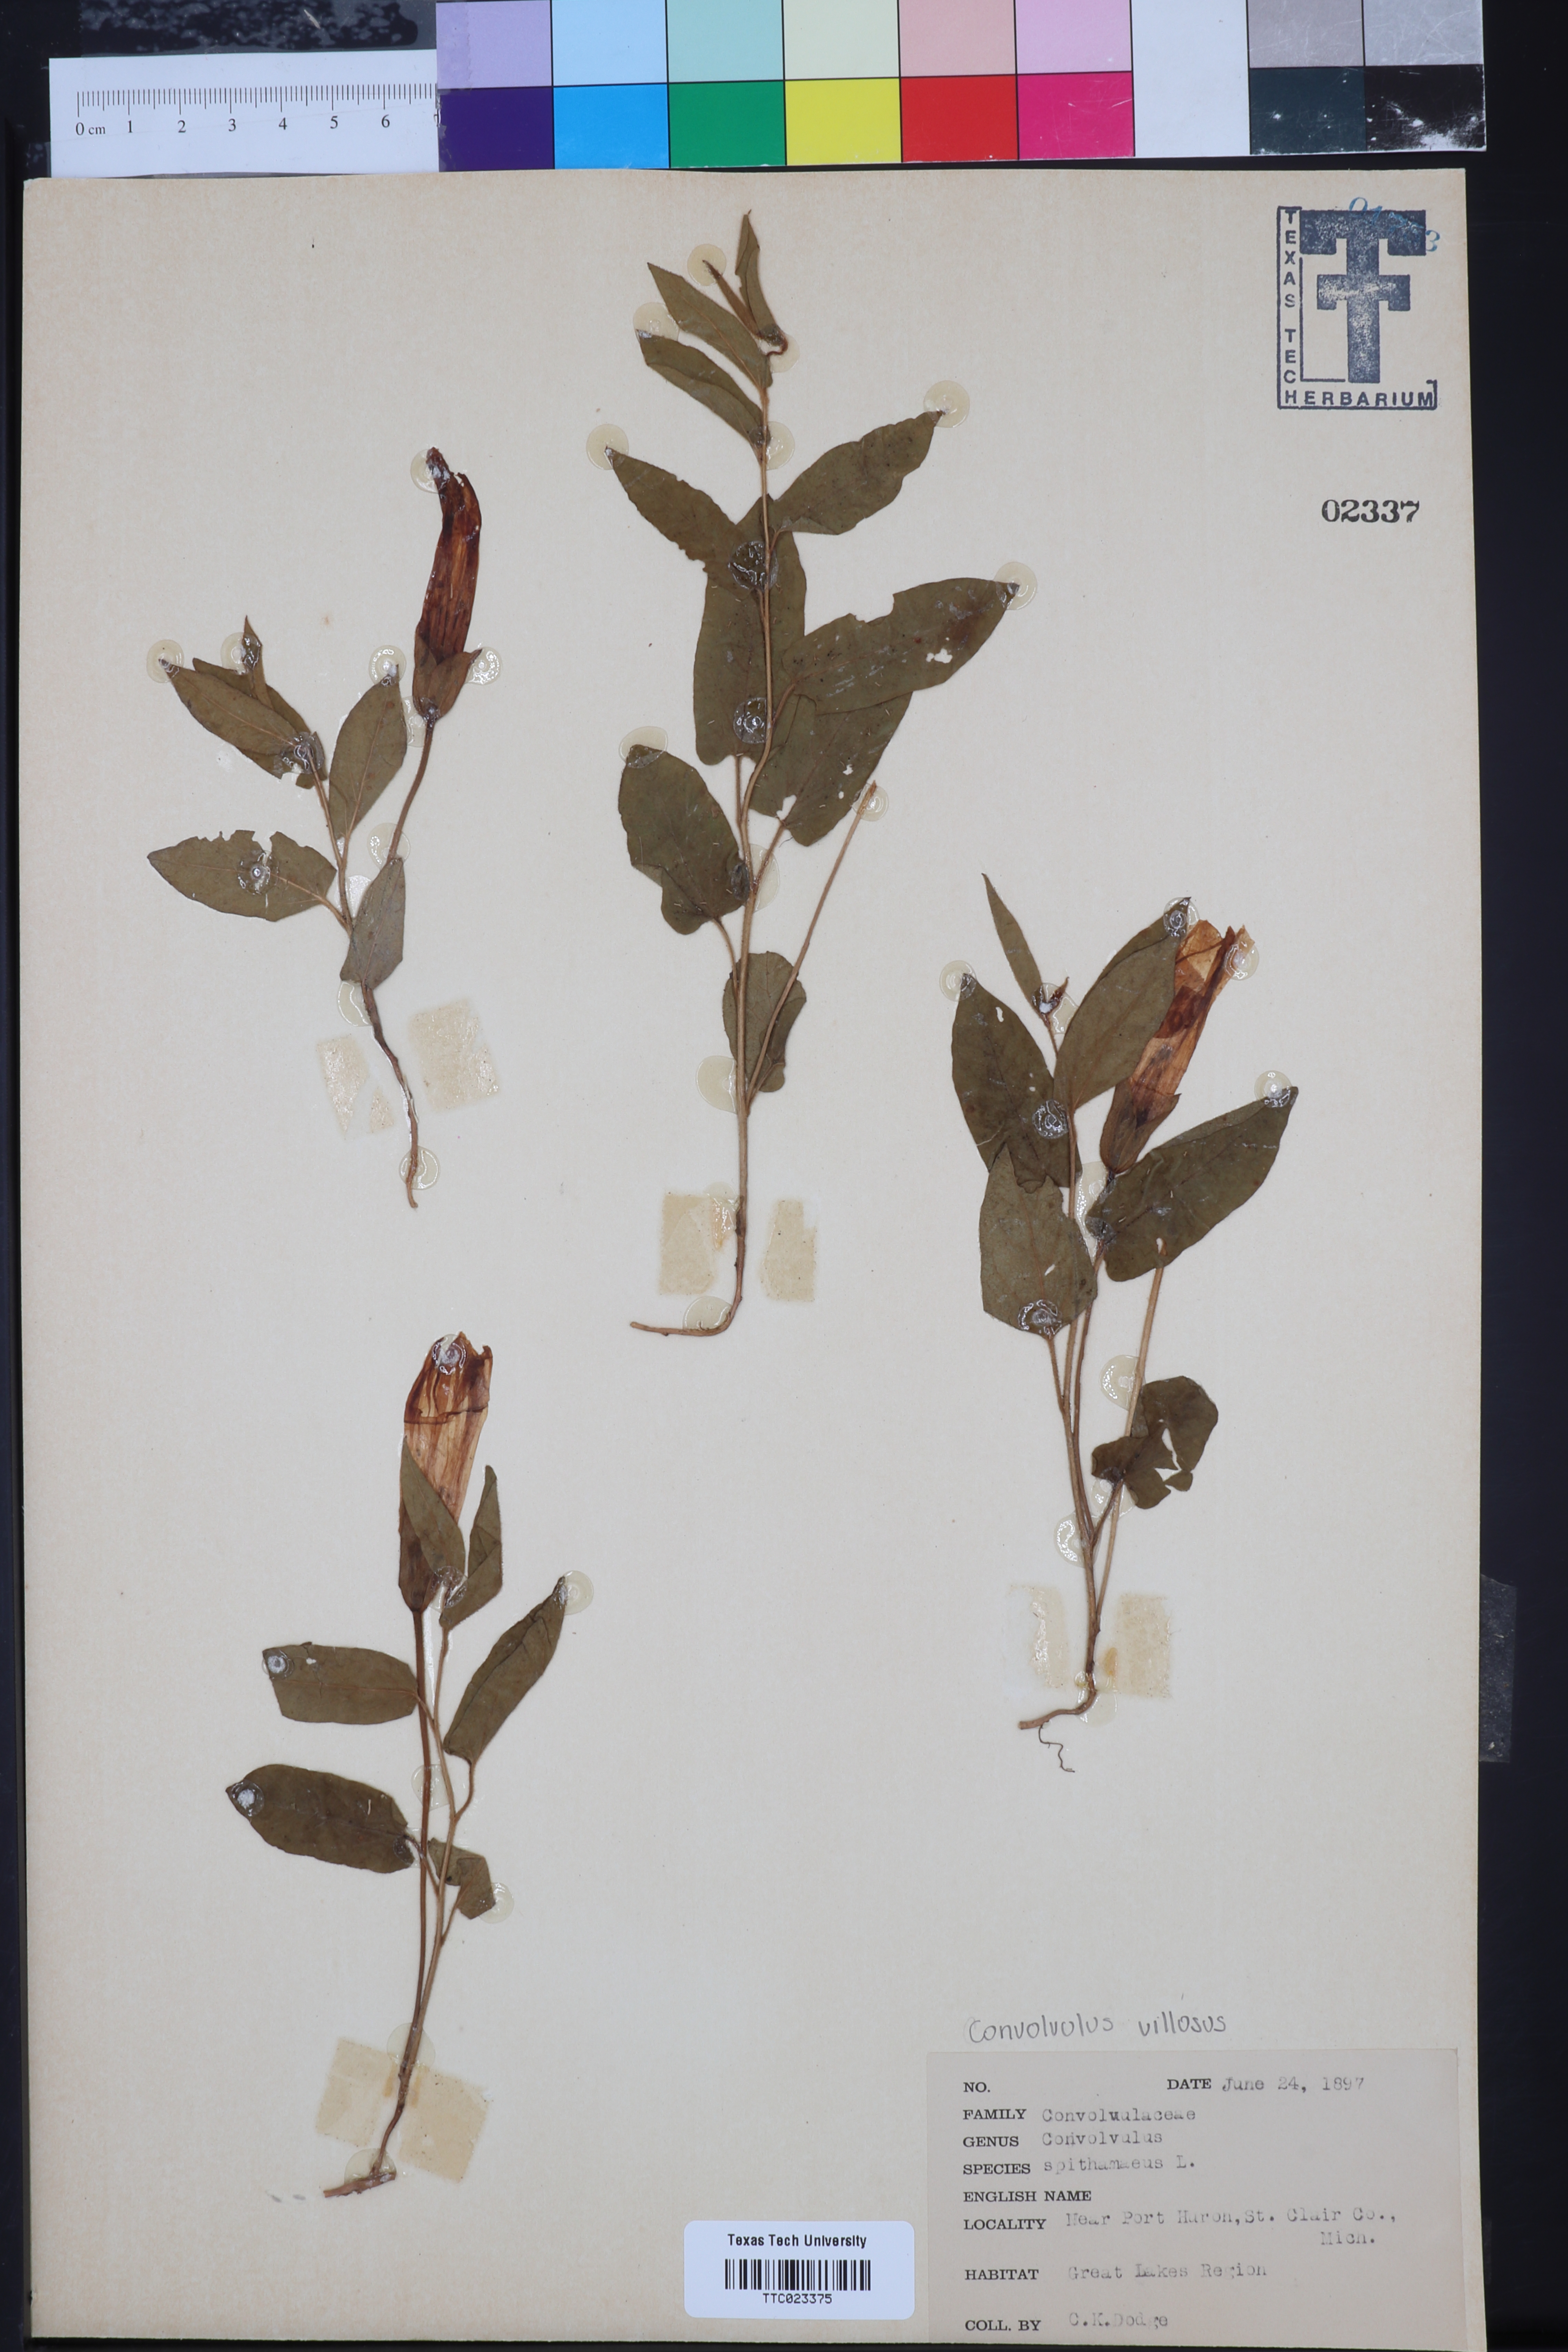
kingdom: Plantae
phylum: Tracheophyta
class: Magnoliopsida
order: Solanales
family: Convolvulaceae
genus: Jacquemontia
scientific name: Jacquemontia tamnifolia
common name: Hairy clustervine
